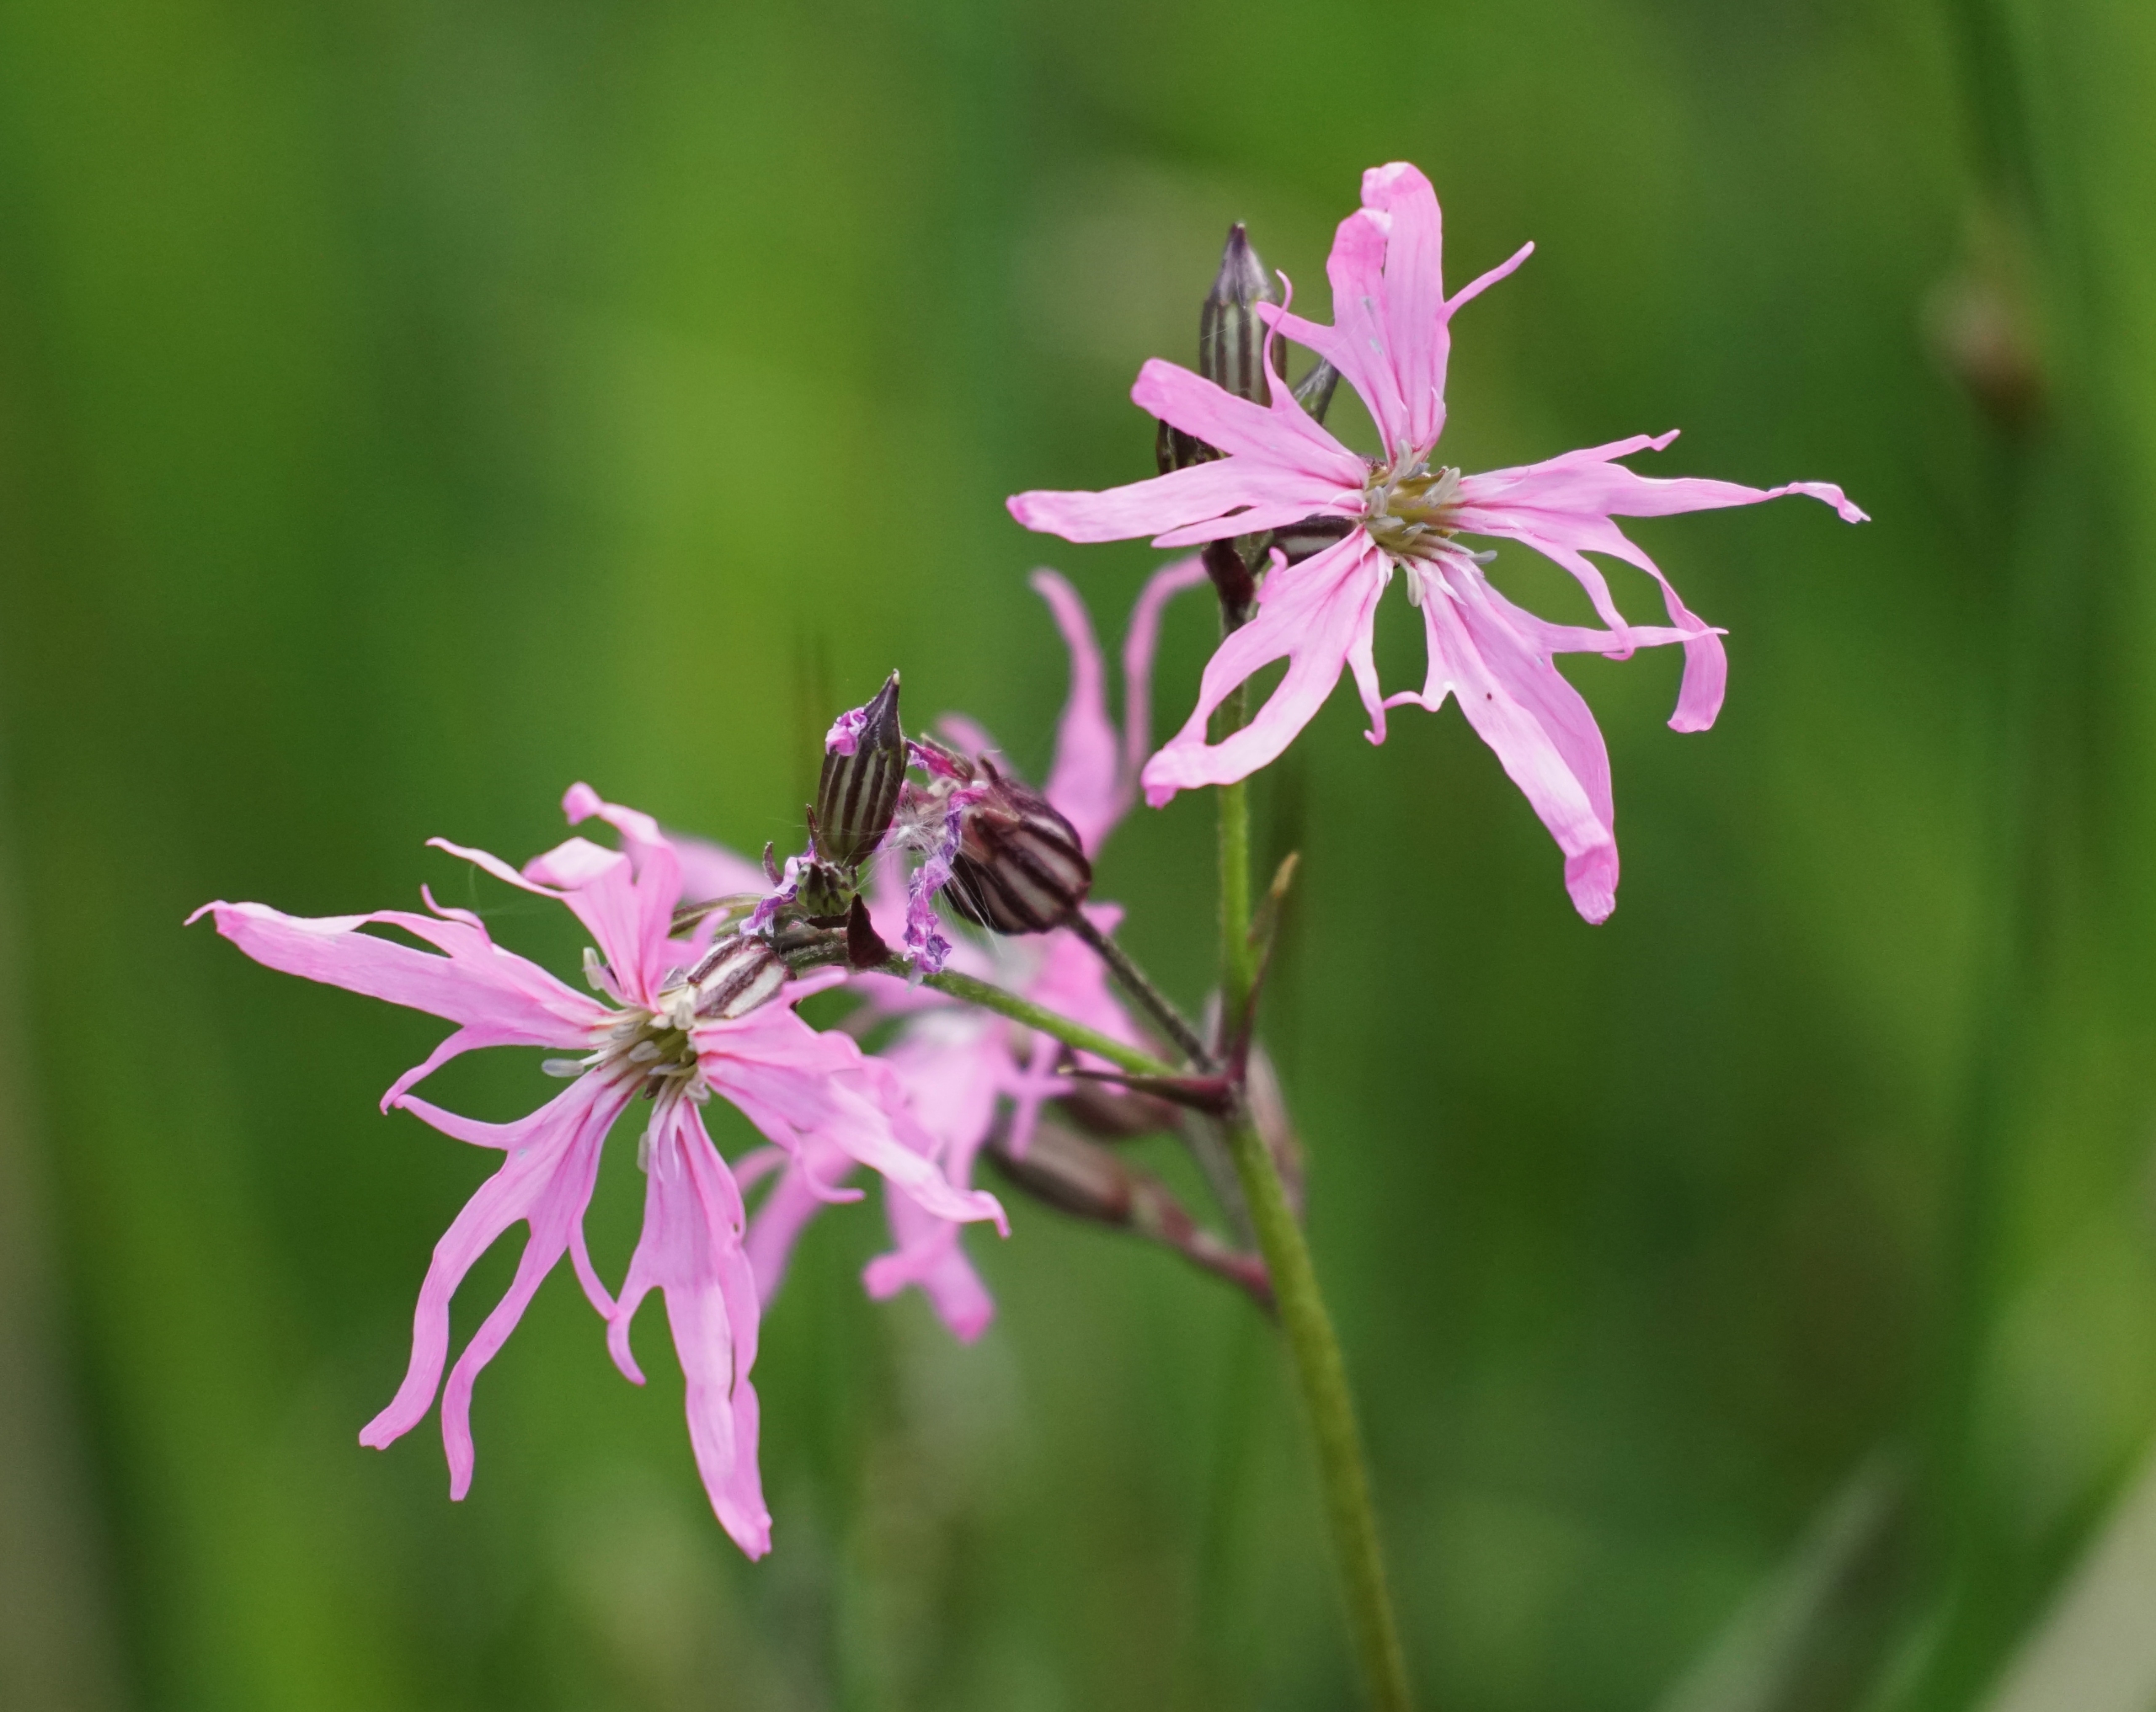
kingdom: Plantae
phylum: Tracheophyta
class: Magnoliopsida
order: Caryophyllales
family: Caryophyllaceae
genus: Silene
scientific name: Silene flos-cuculi
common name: Trævlekrone
